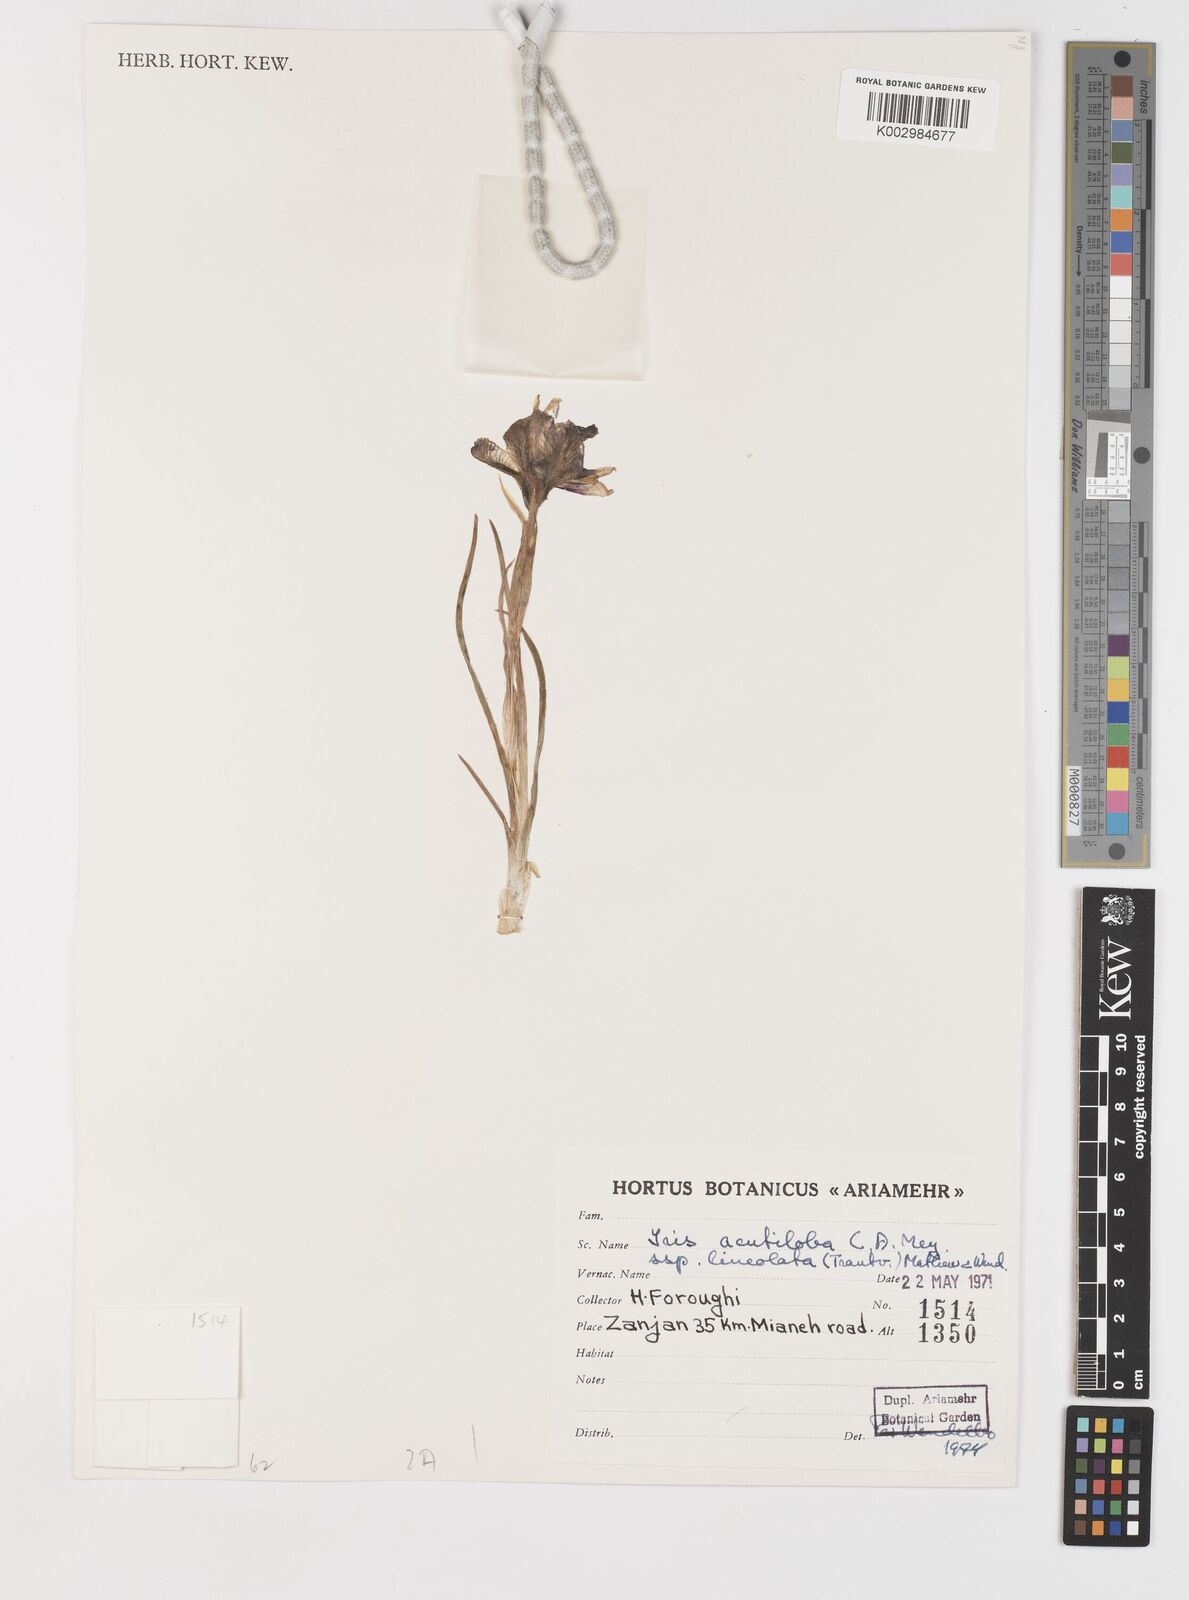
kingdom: Plantae
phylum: Tracheophyta
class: Liliopsida
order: Asparagales
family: Iridaceae
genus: Iris
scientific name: Iris acutiloba
